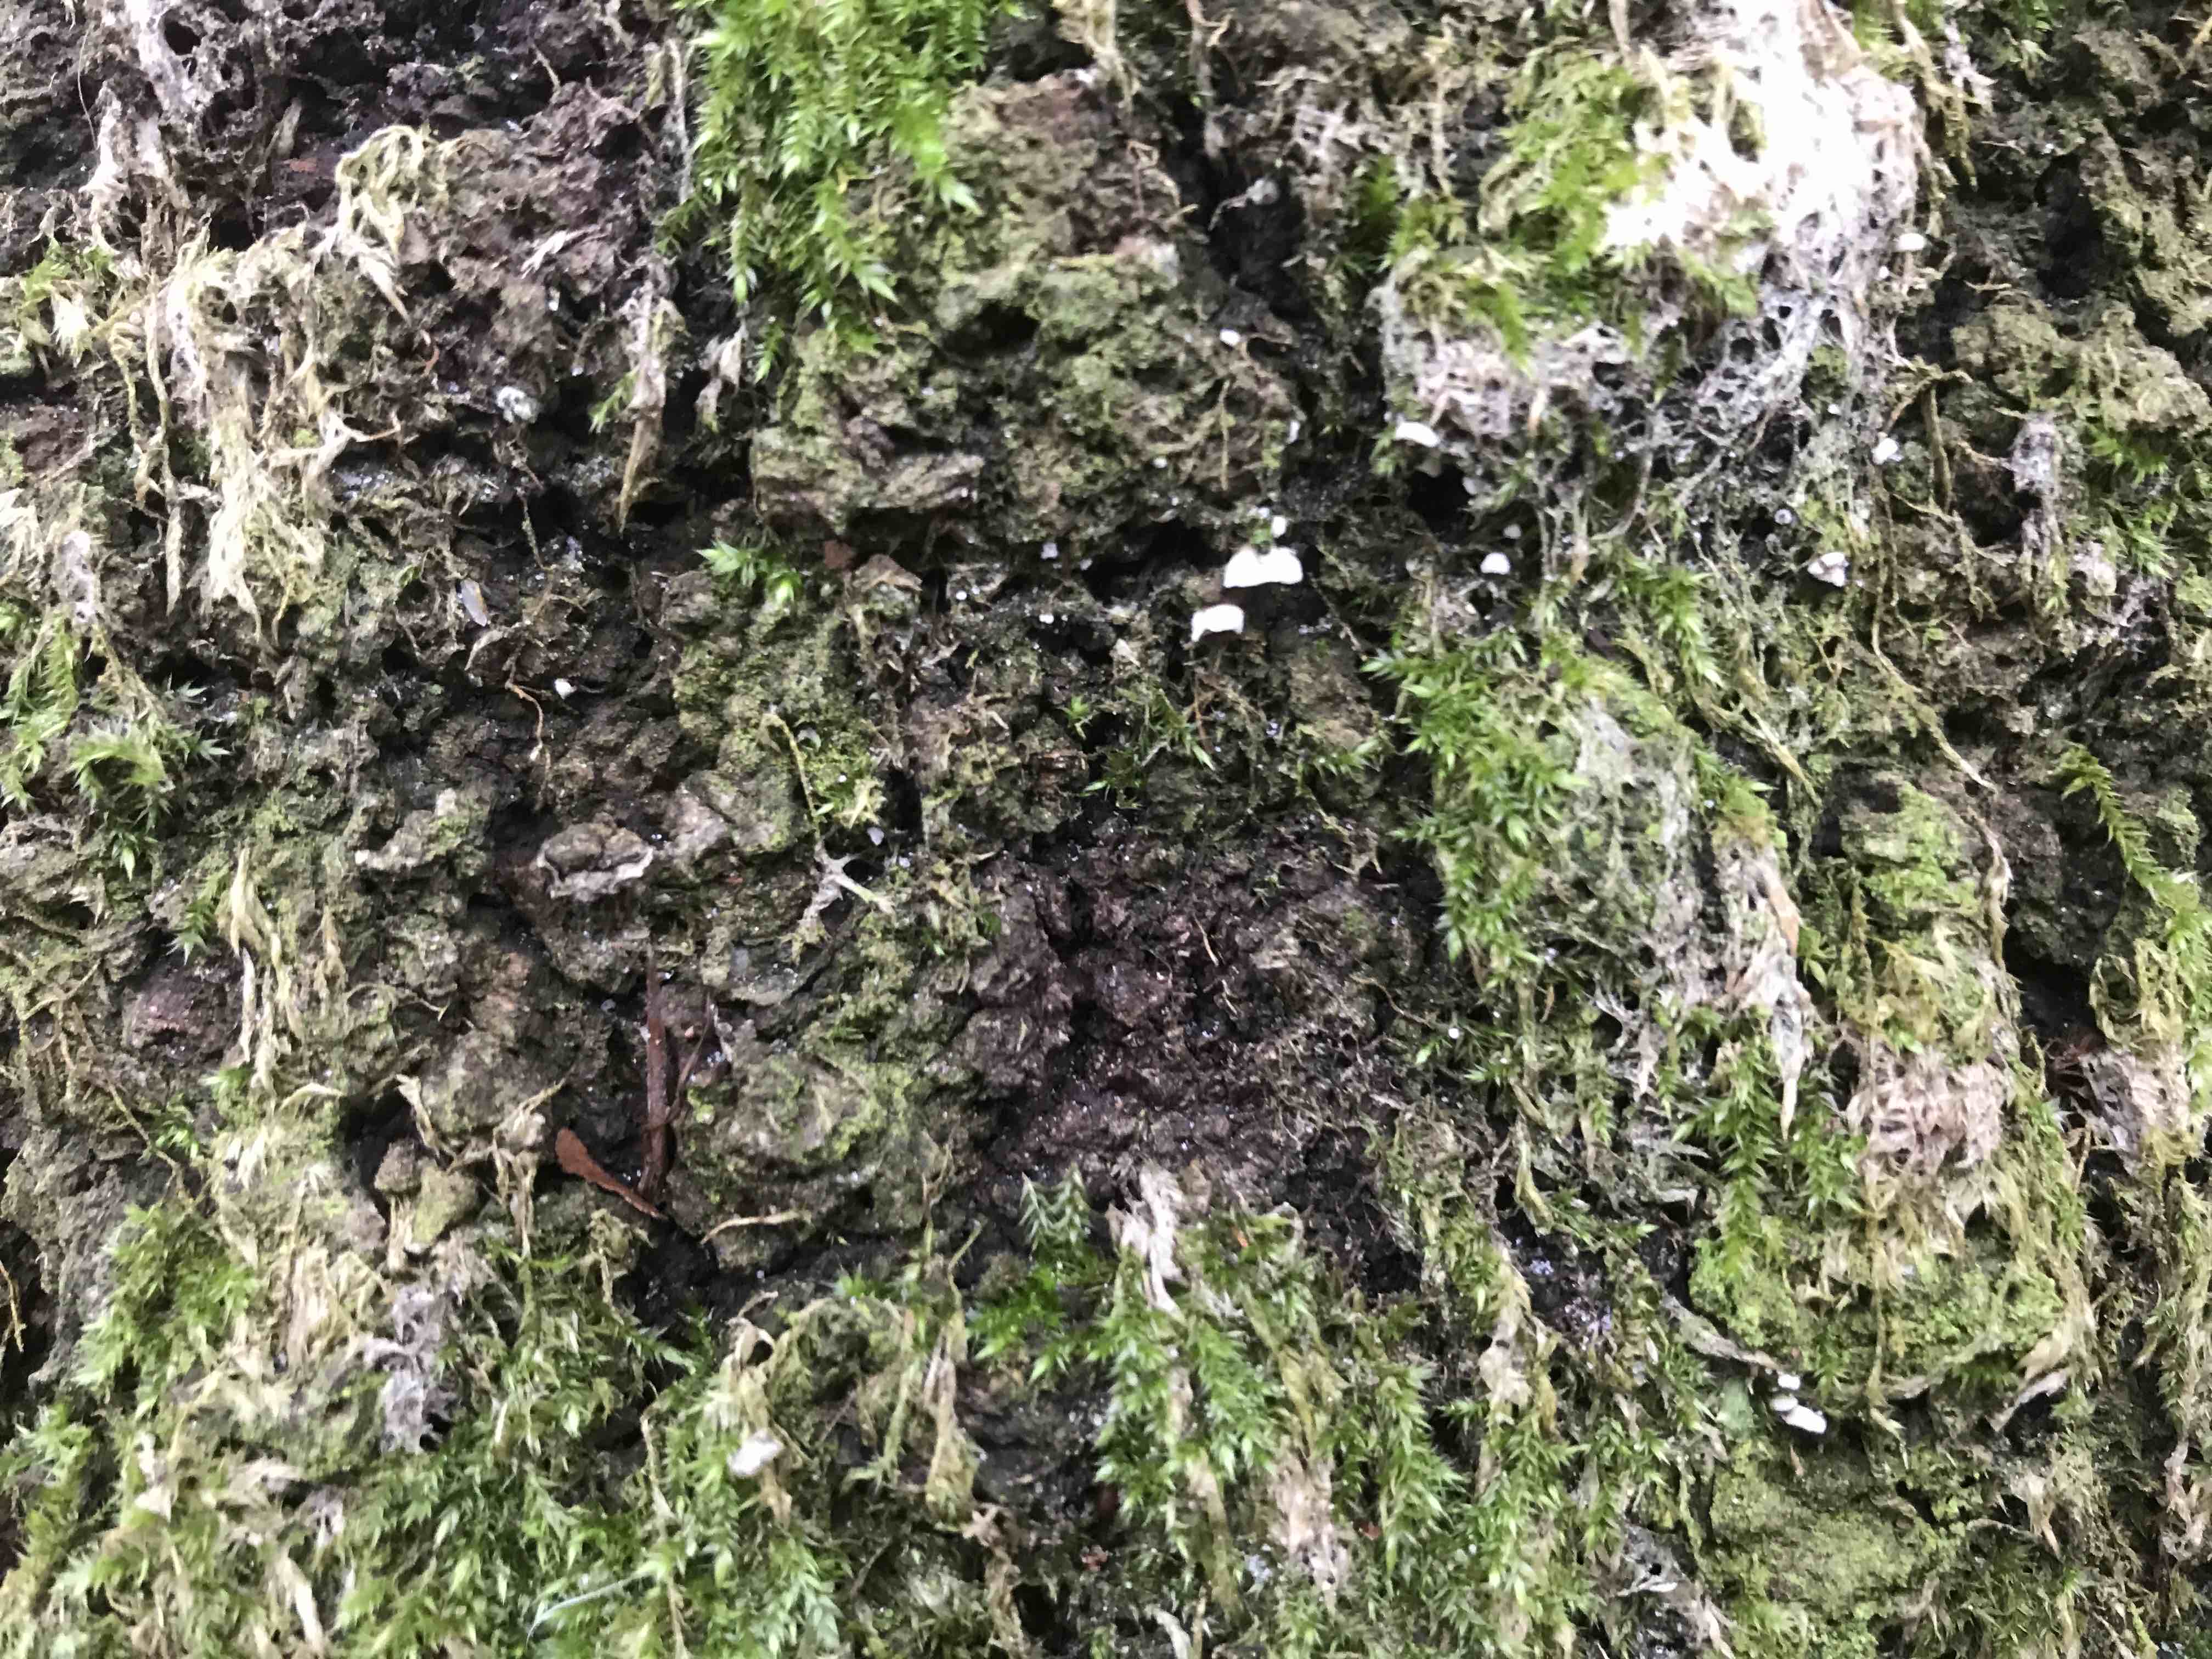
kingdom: Fungi
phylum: Basidiomycota
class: Agaricomycetes
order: Agaricales
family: Chromocyphellaceae
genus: Chromocyphella
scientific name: Chromocyphella muscicola
